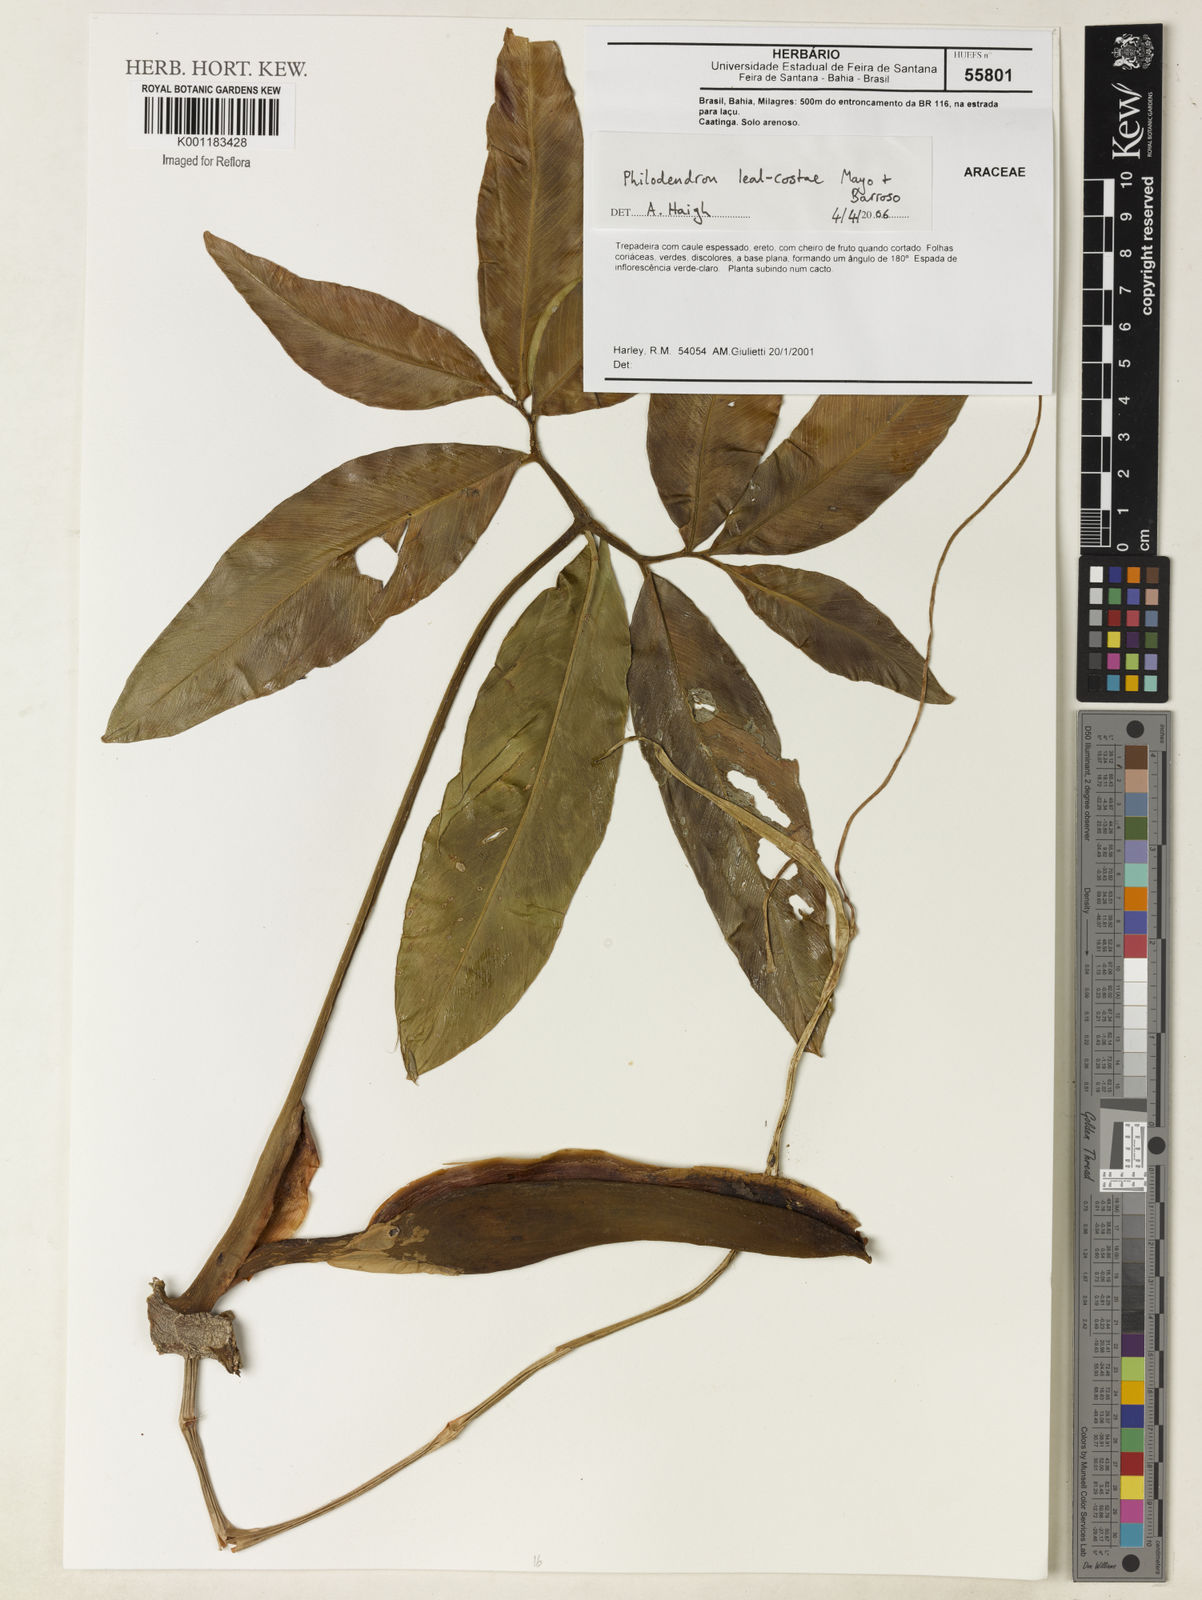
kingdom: Plantae
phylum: Tracheophyta
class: Liliopsida
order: Alismatales
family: Araceae
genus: Thaumatophyllum
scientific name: Thaumatophyllum leal-costae
